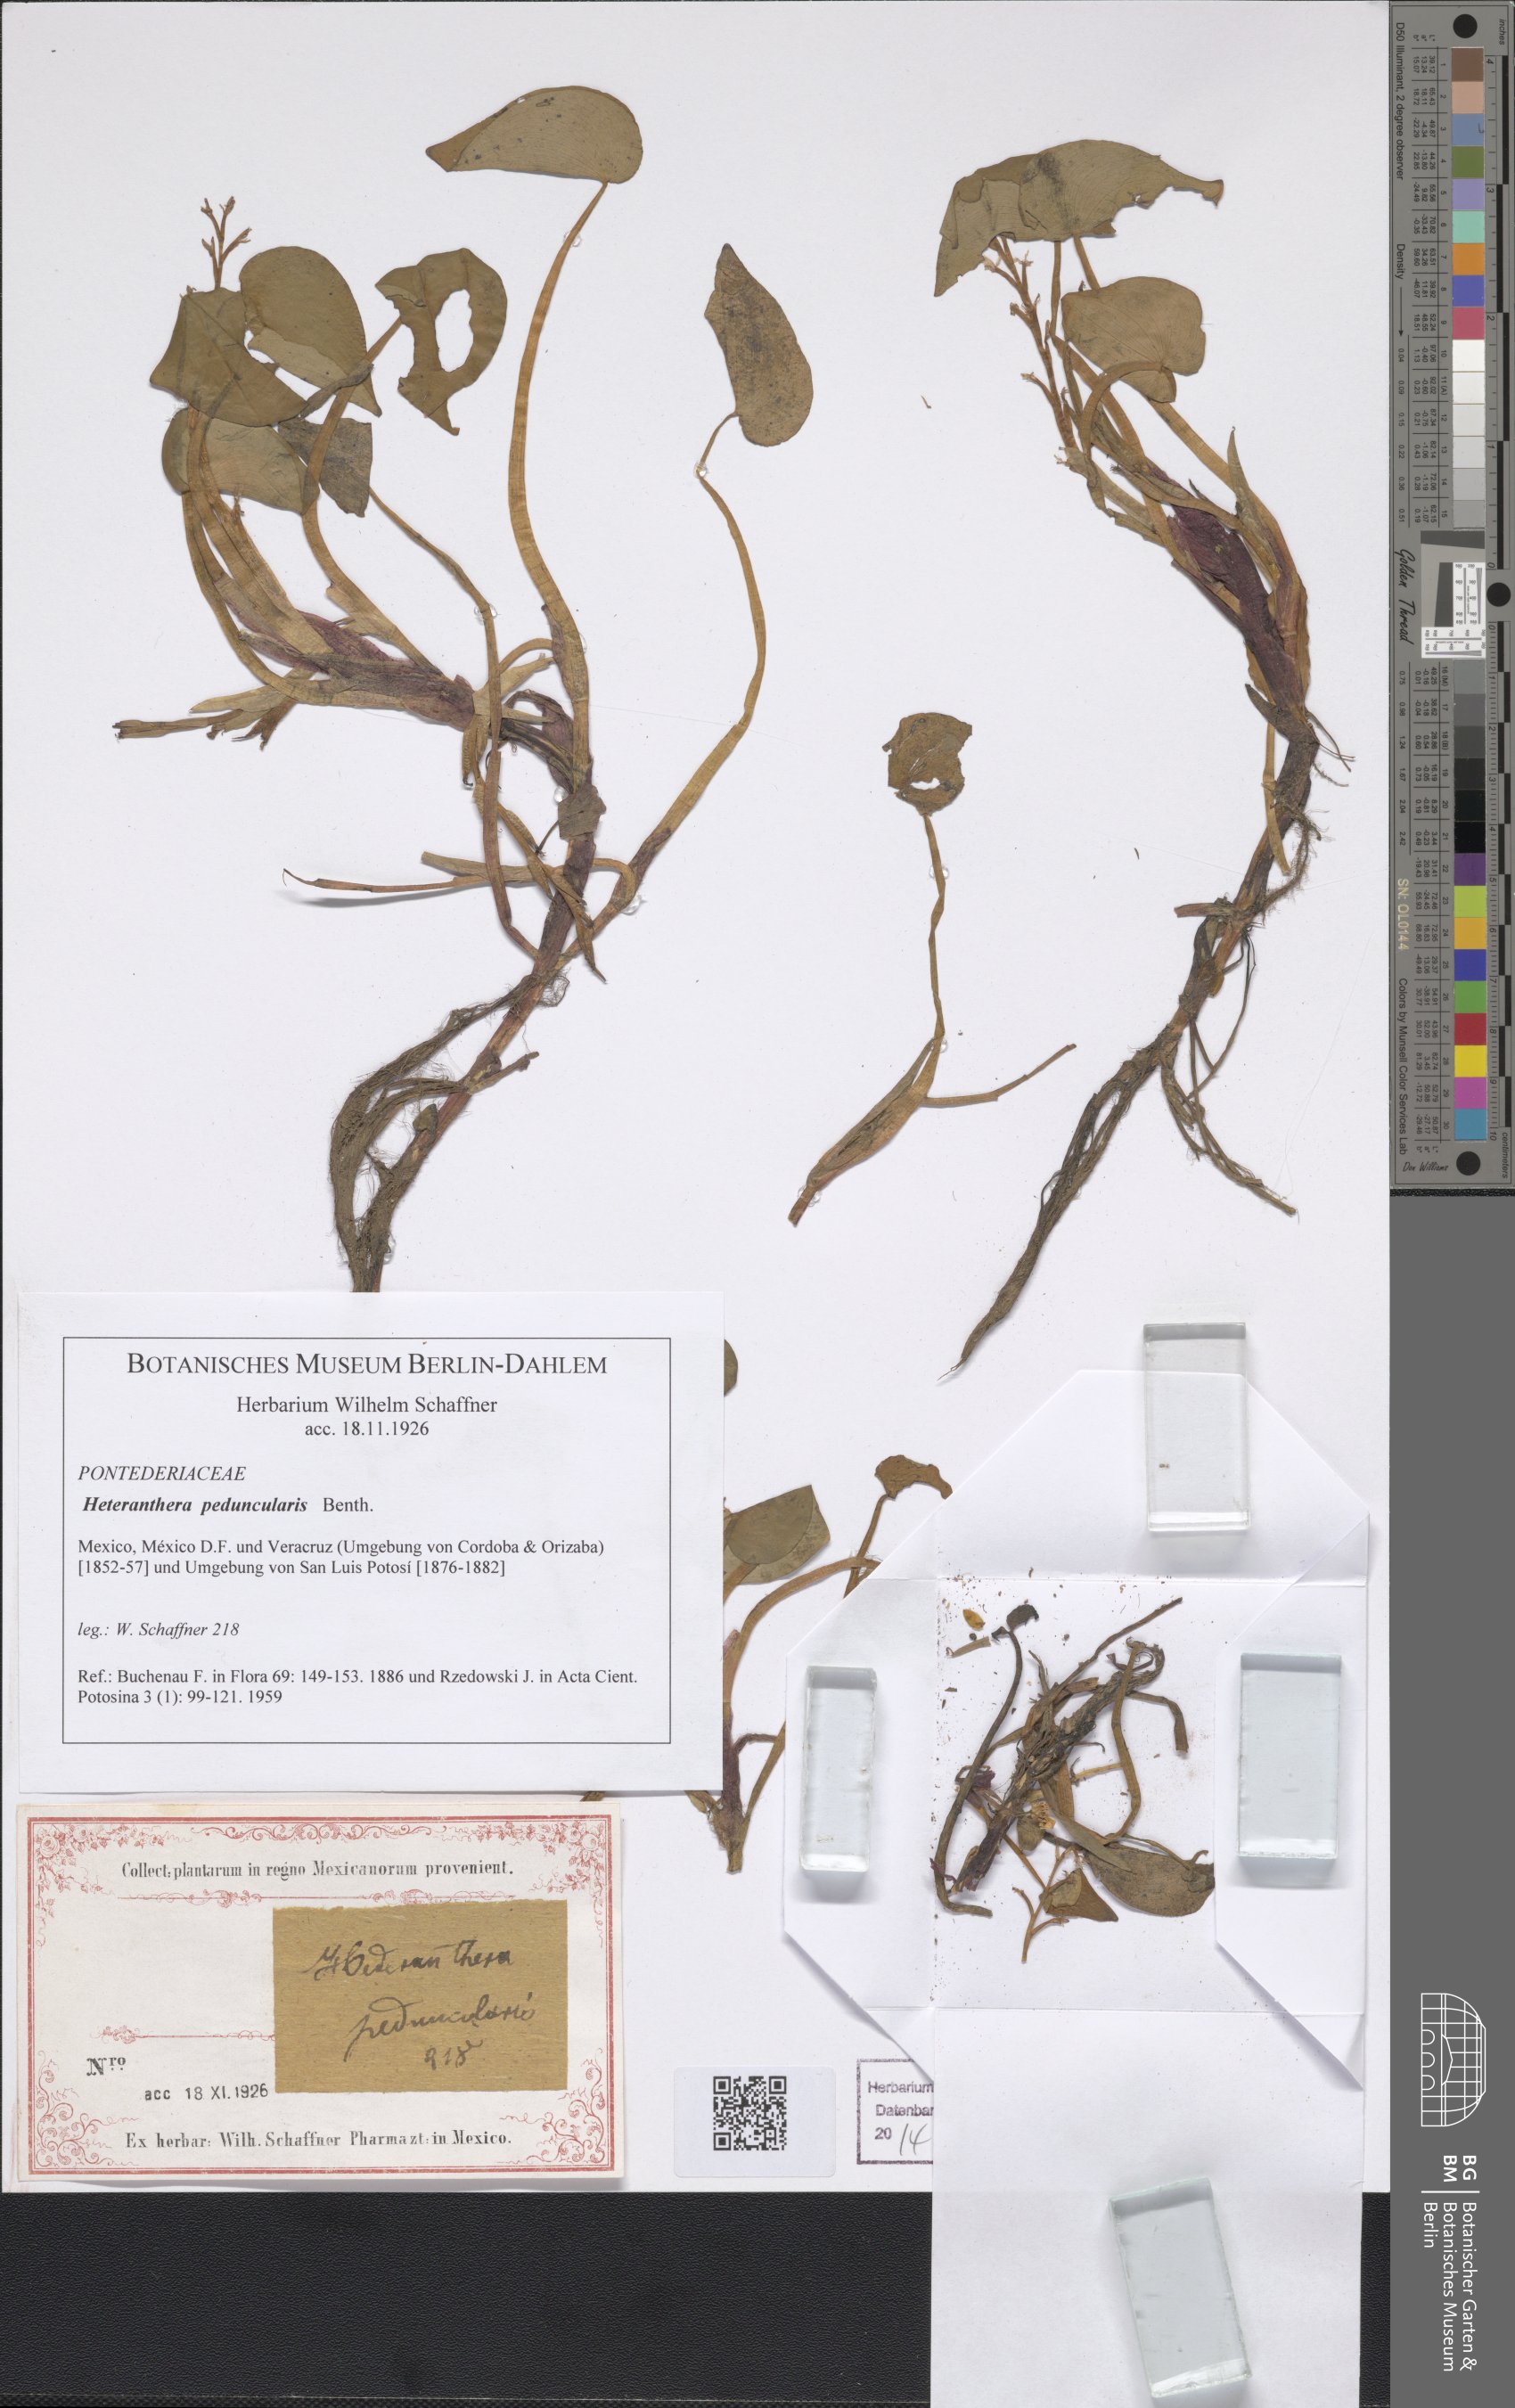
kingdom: Plantae
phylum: Tracheophyta
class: Liliopsida
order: Commelinales
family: Pontederiaceae
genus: Heteranthera
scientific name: Heteranthera peduncularis
